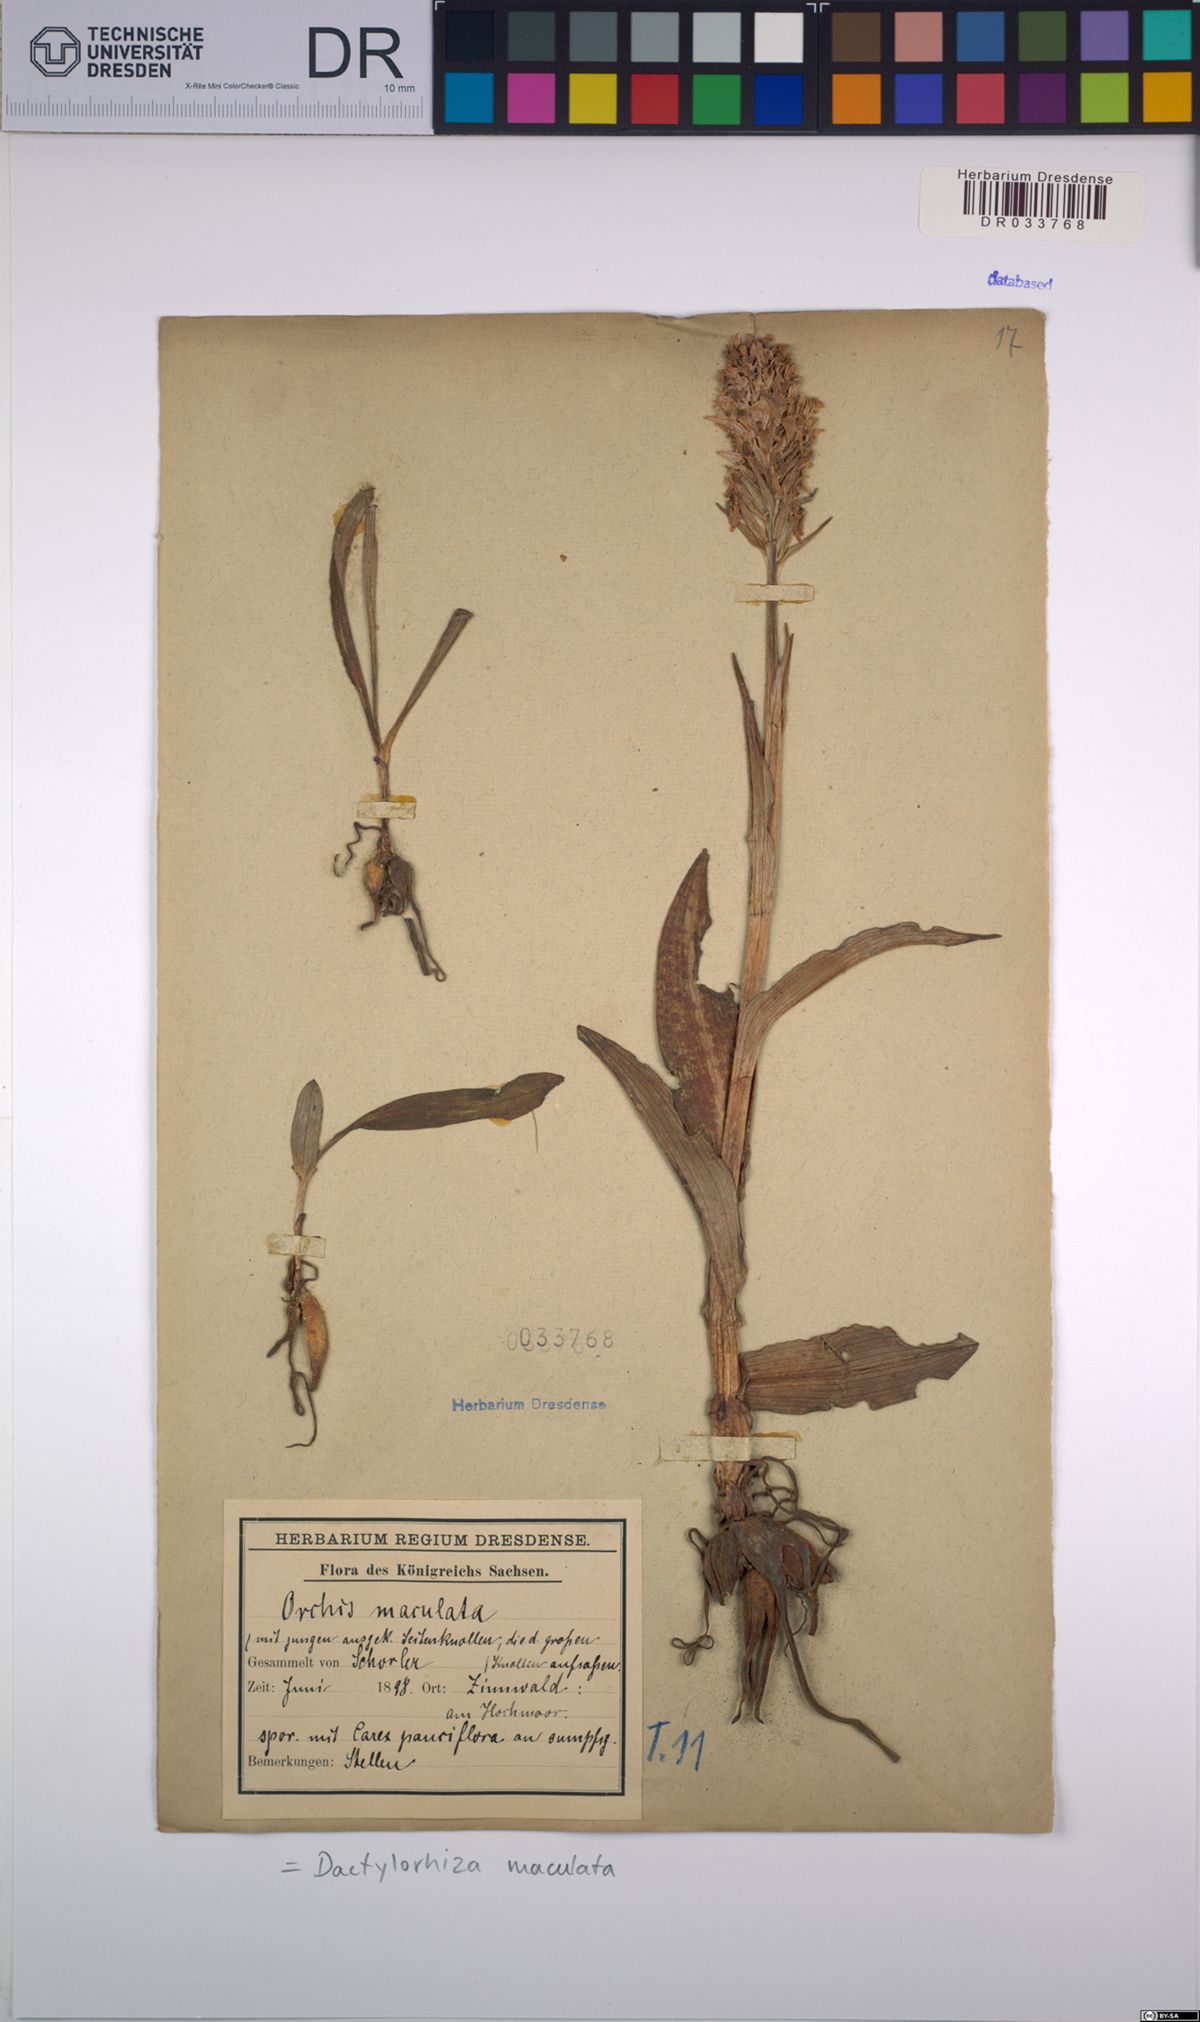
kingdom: Plantae
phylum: Tracheophyta
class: Liliopsida
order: Asparagales
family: Orchidaceae
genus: Dactylorhiza
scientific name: Dactylorhiza maculata
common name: Heath spotted-orchid
